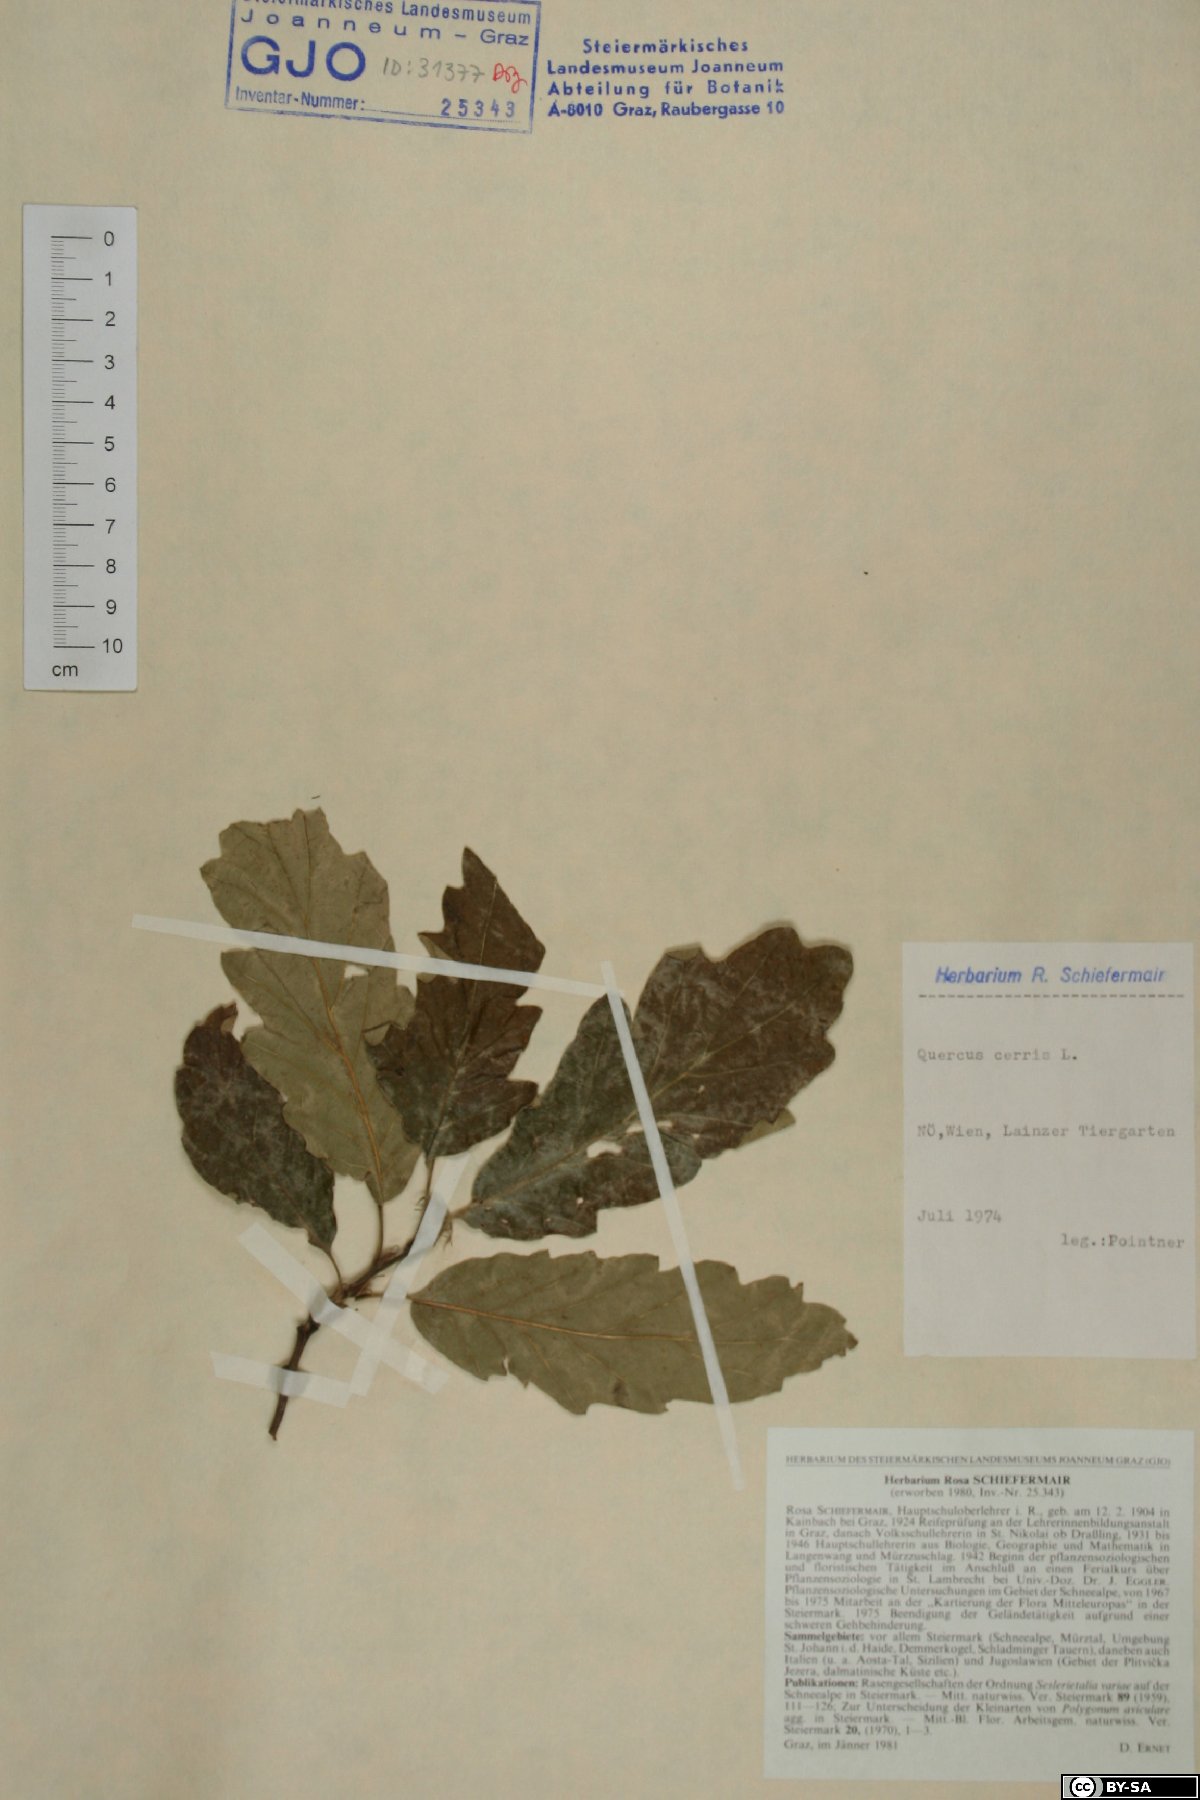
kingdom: Plantae
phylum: Tracheophyta
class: Magnoliopsida
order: Fagales
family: Fagaceae
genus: Quercus
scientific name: Quercus cerris
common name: Turkey oak
